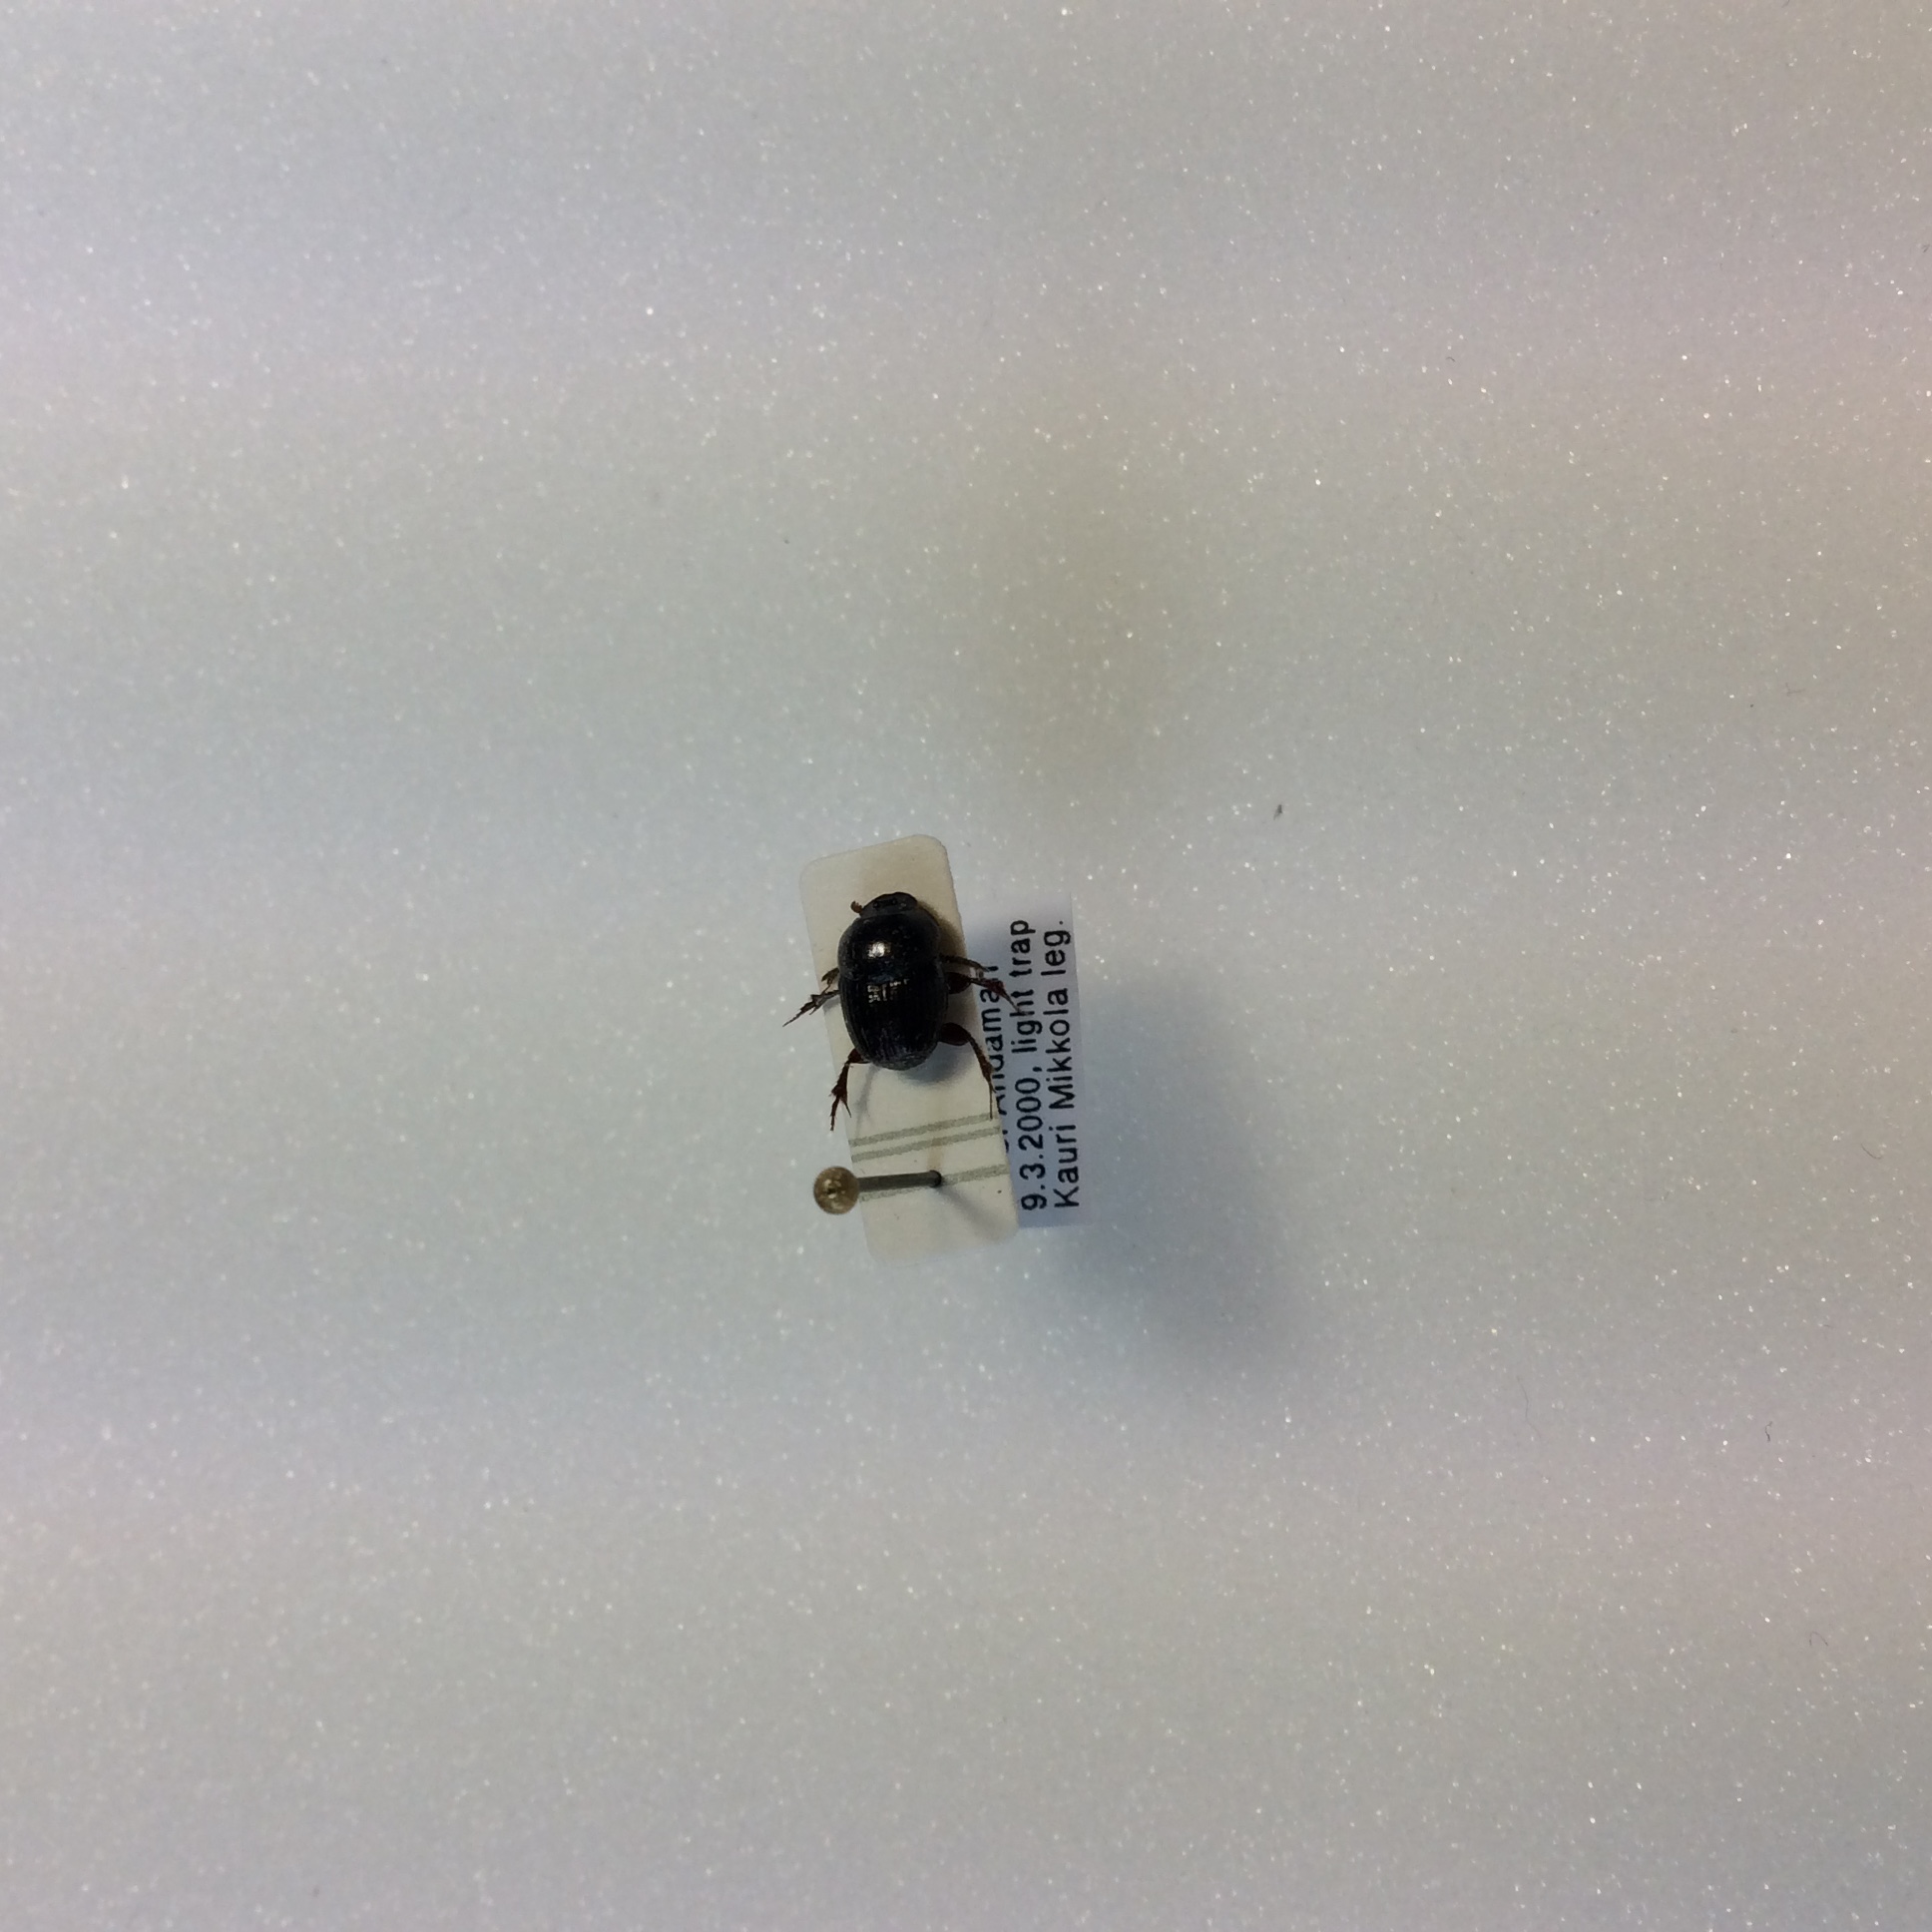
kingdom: Animalia
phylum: Arthropoda
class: Insecta
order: Coleoptera
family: Scarabaeidae
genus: Onthophagus
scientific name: Onthophagus
